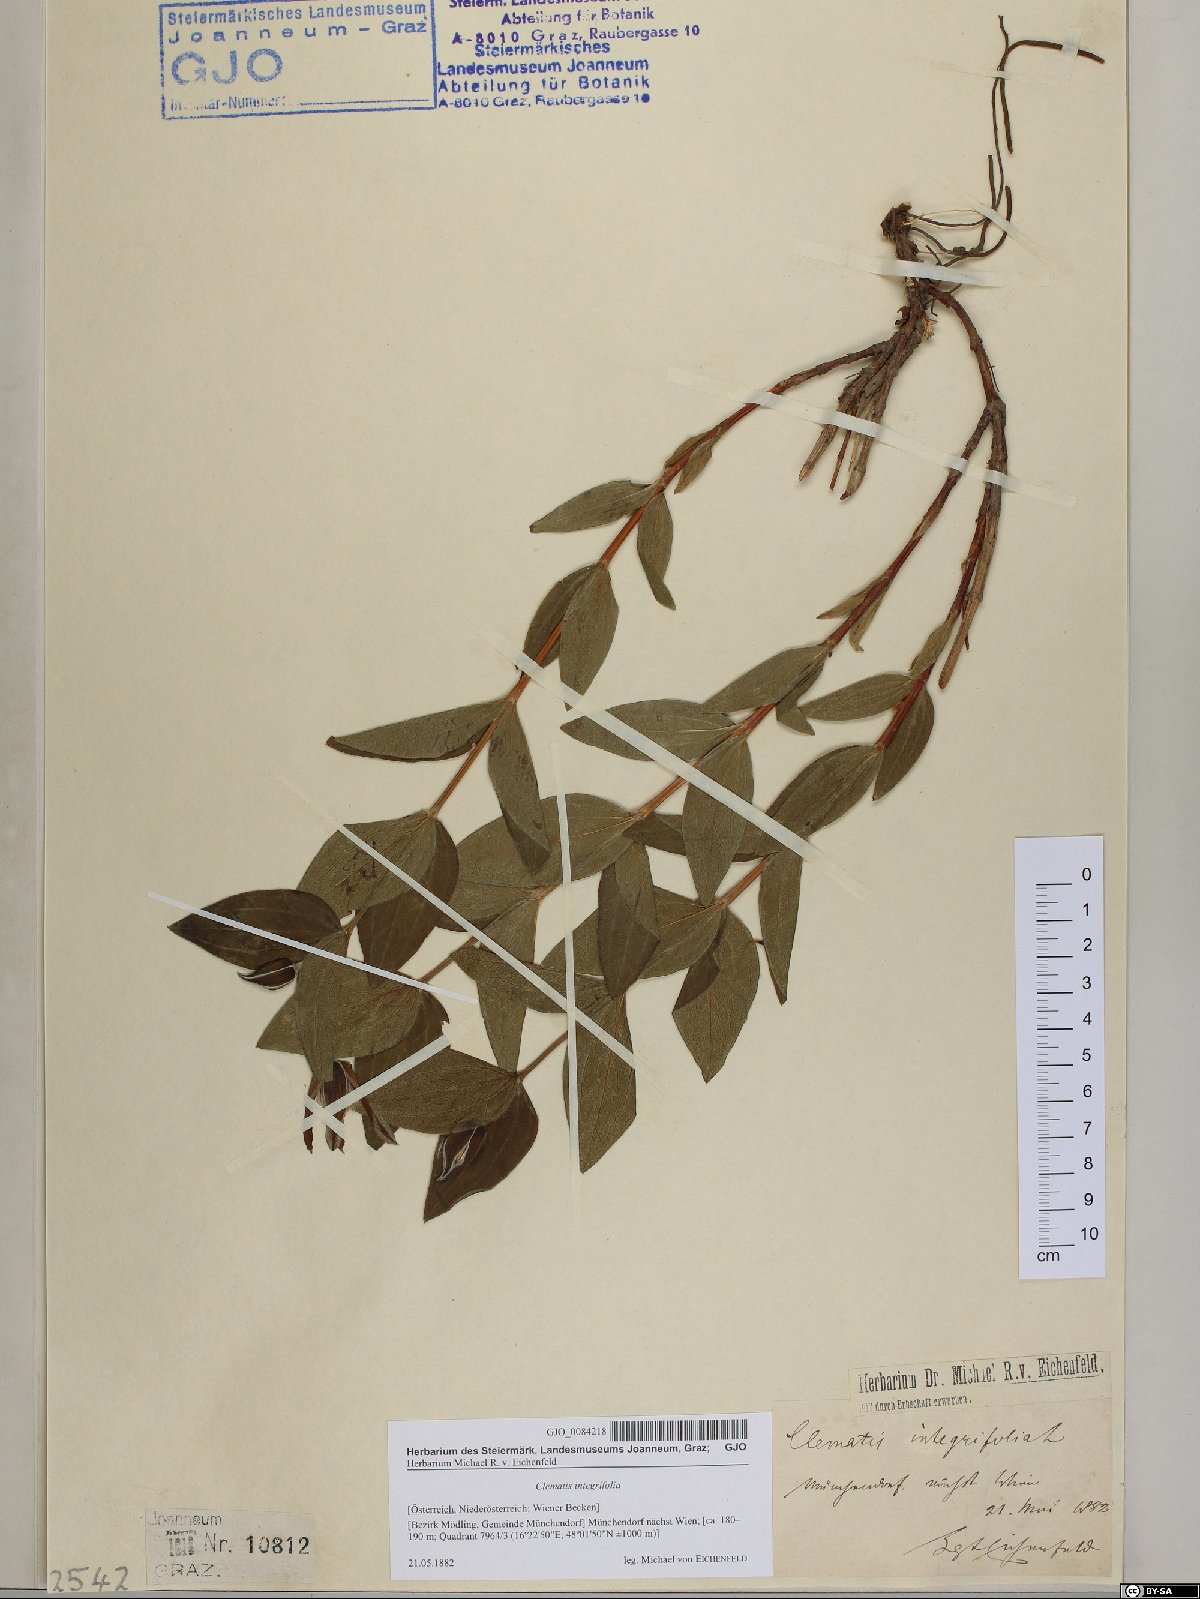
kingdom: Plantae
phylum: Tracheophyta
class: Magnoliopsida
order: Ranunculales
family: Ranunculaceae
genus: Clematis
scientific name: Clematis integrifolia
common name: Solitary clematis
